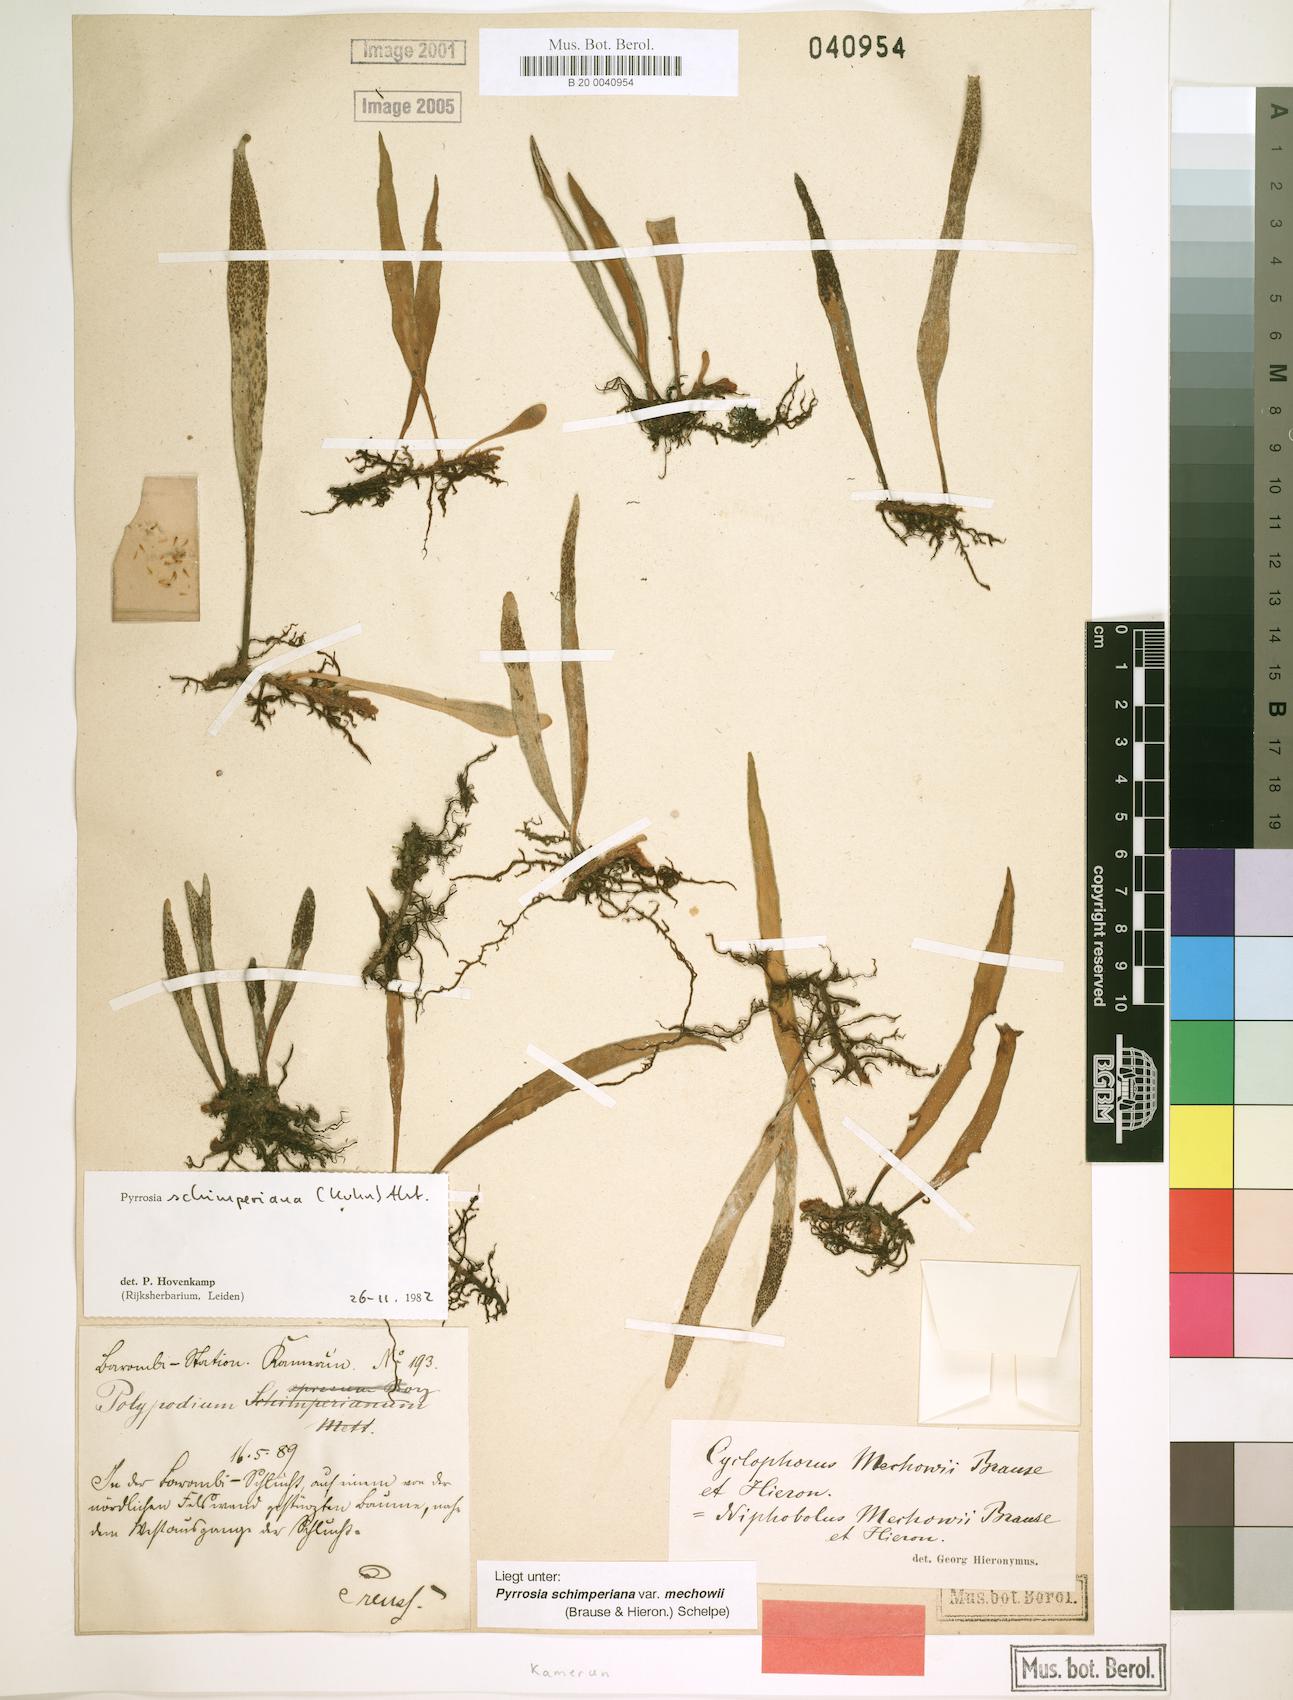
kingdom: Plantae
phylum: Tracheophyta
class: Polypodiopsida
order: Polypodiales
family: Polypodiaceae
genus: Hovenkampia
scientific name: Hovenkampia schimperiana
